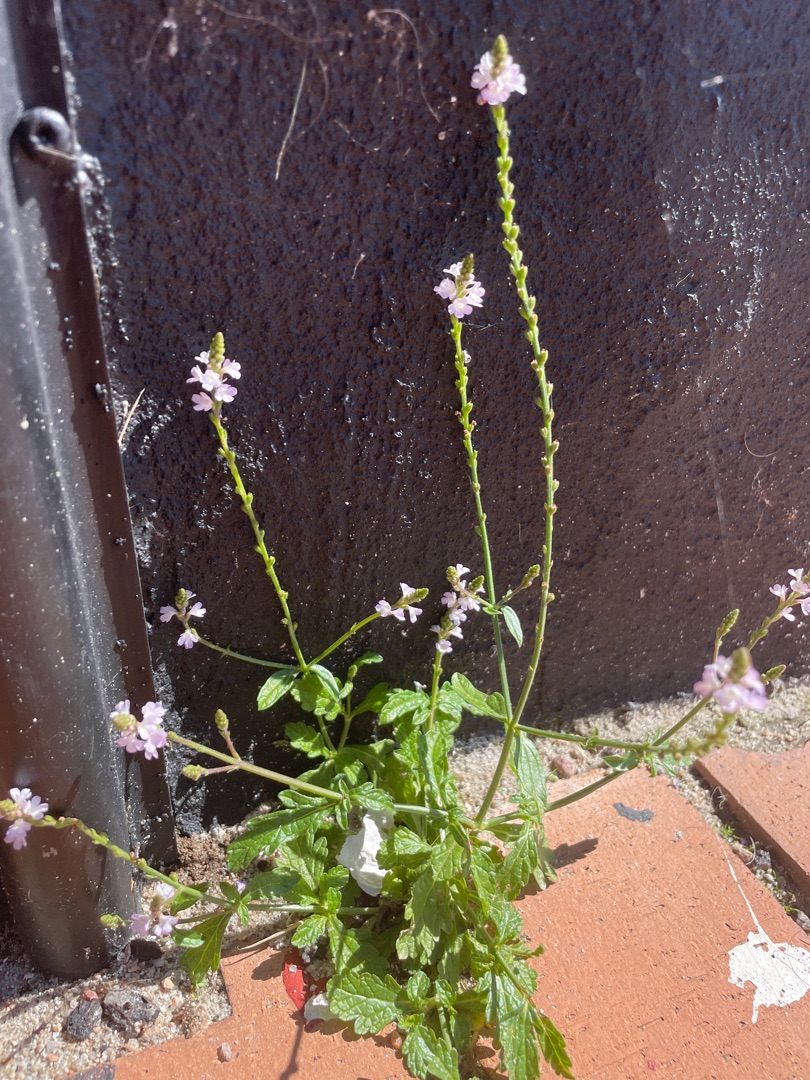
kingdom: Plantae
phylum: Tracheophyta
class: Magnoliopsida
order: Lamiales
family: Verbenaceae
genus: Verbena
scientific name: Verbena officinalis
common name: Læge-jernurt
